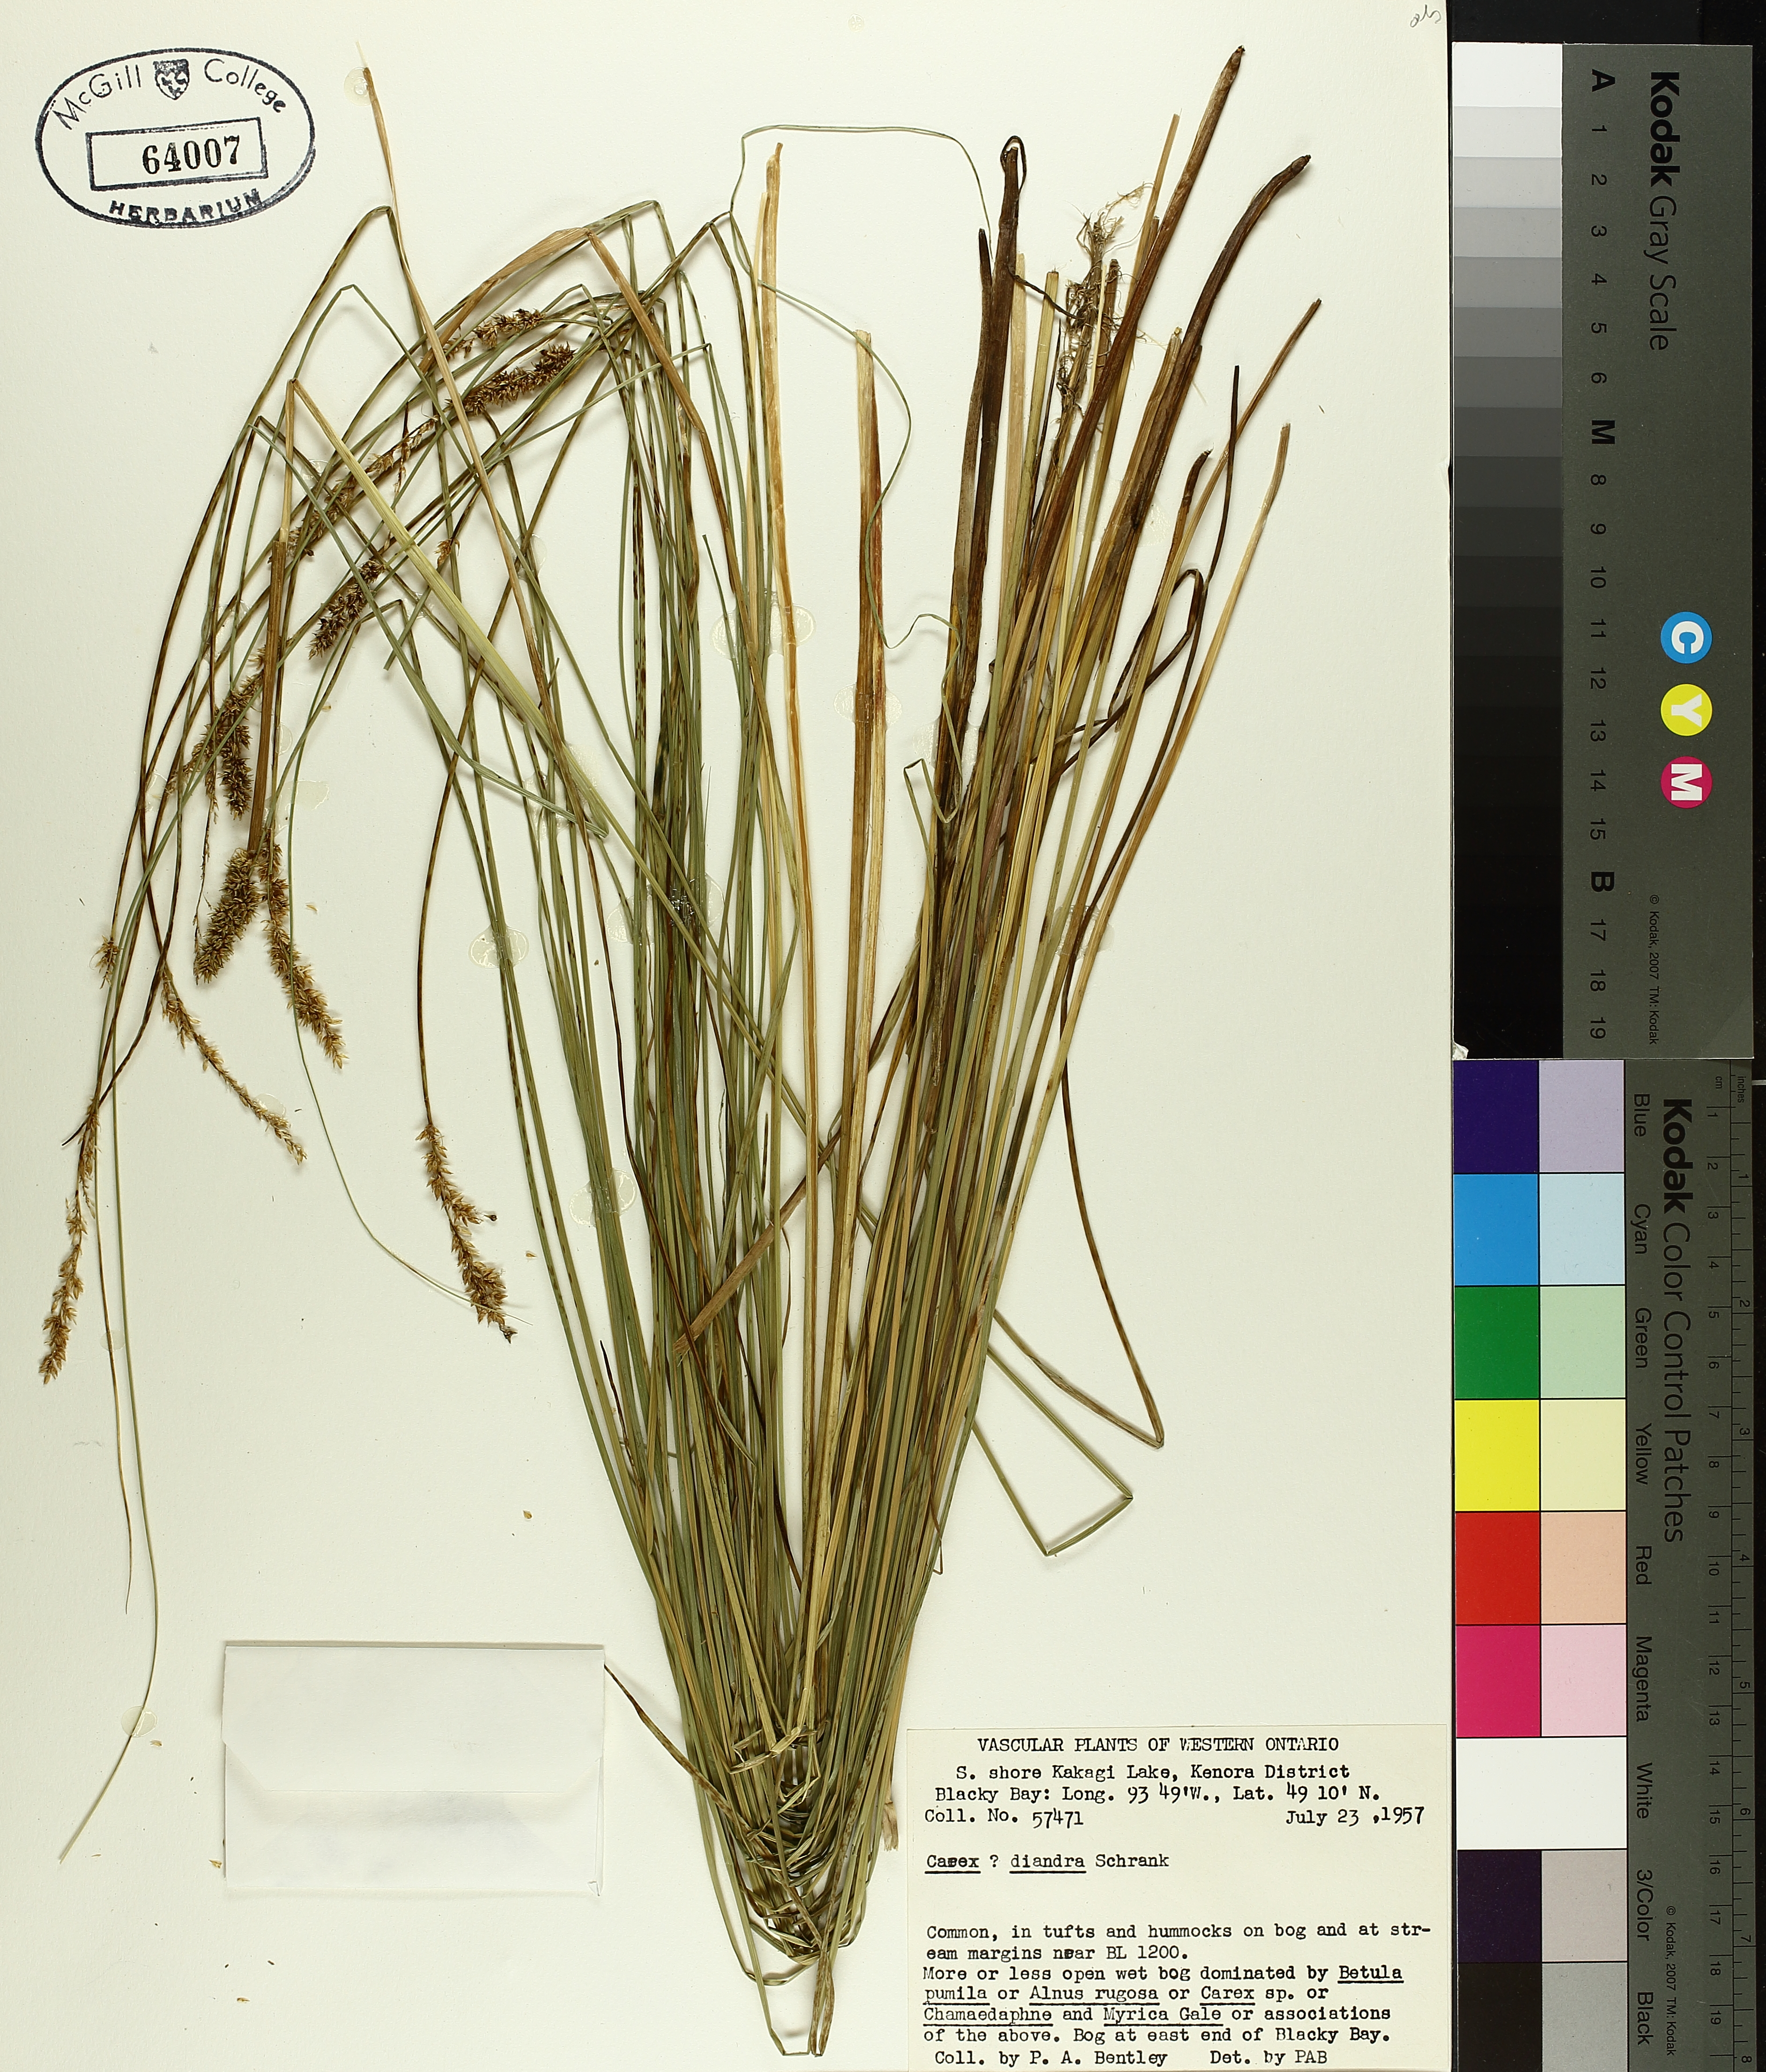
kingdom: Plantae
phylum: Tracheophyta
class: Liliopsida
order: Poales
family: Cyperaceae
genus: Carex
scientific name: Carex diandra
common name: Lesser tussock-sedge
